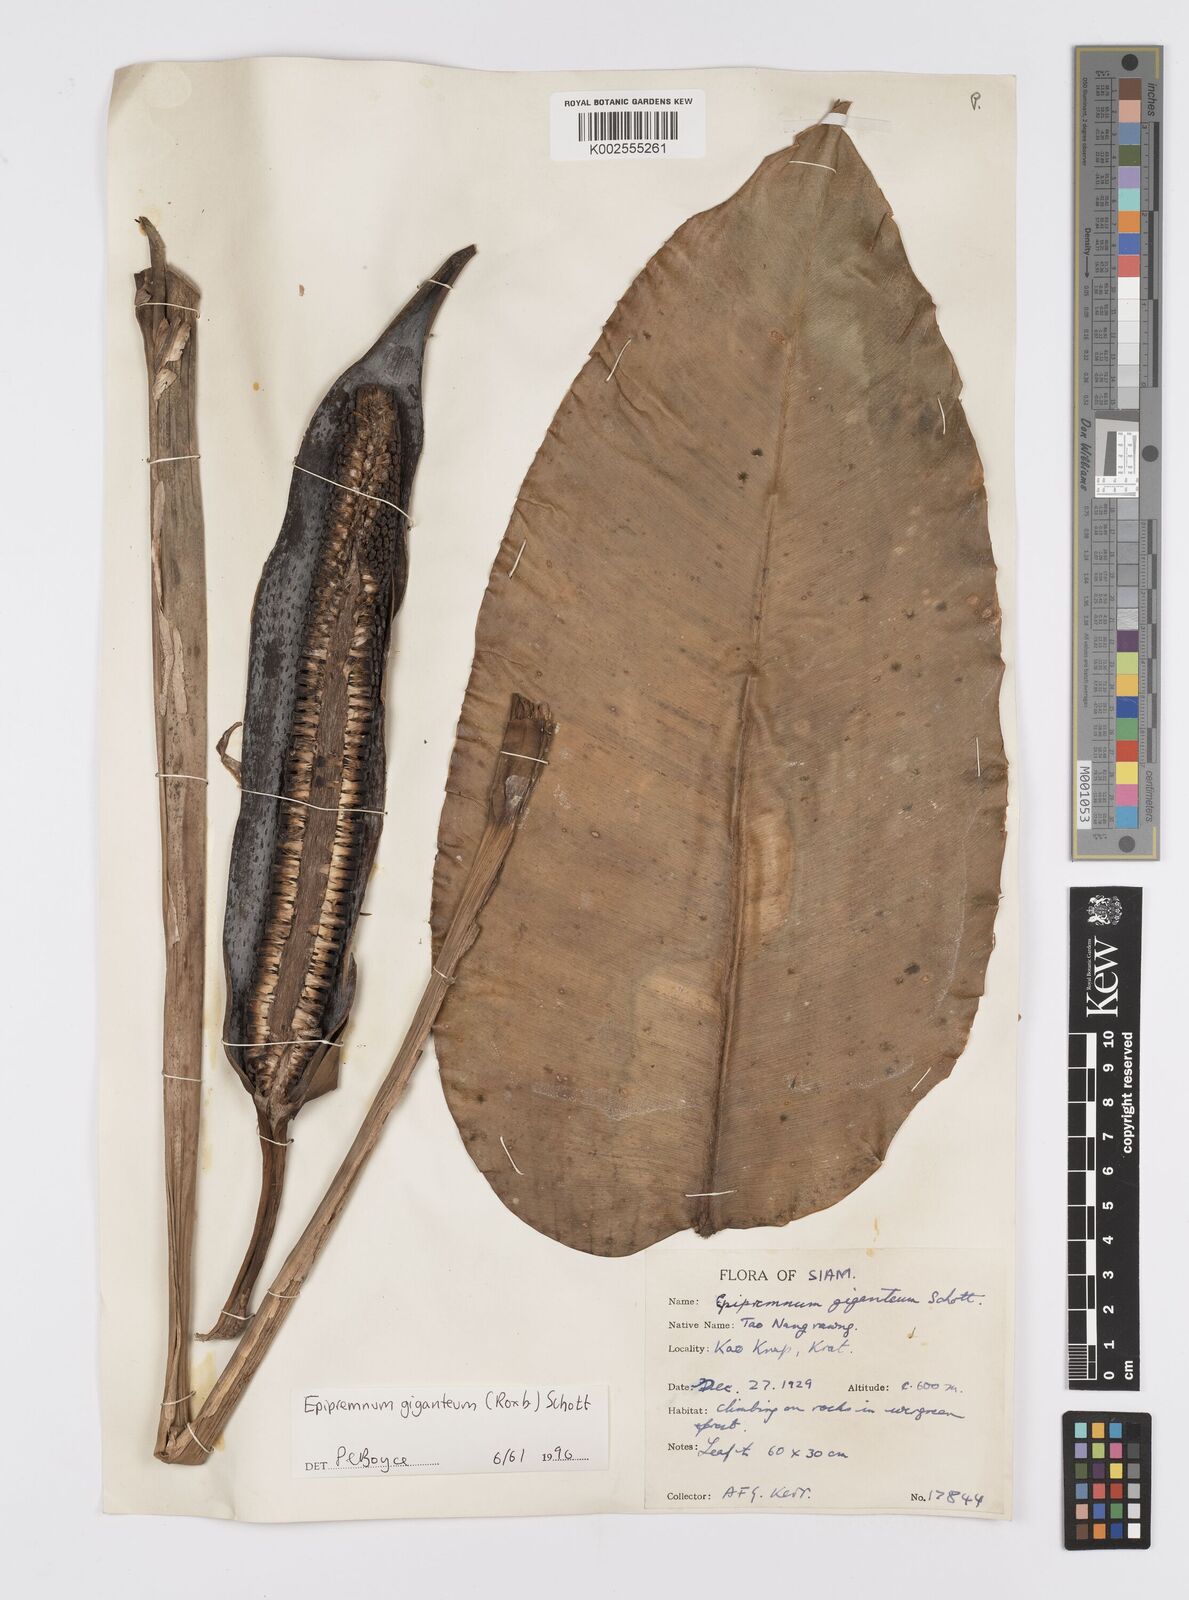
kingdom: Plantae
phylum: Tracheophyta
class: Liliopsida
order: Alismatales
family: Araceae
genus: Epipremnum
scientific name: Epipremnum giganteum
